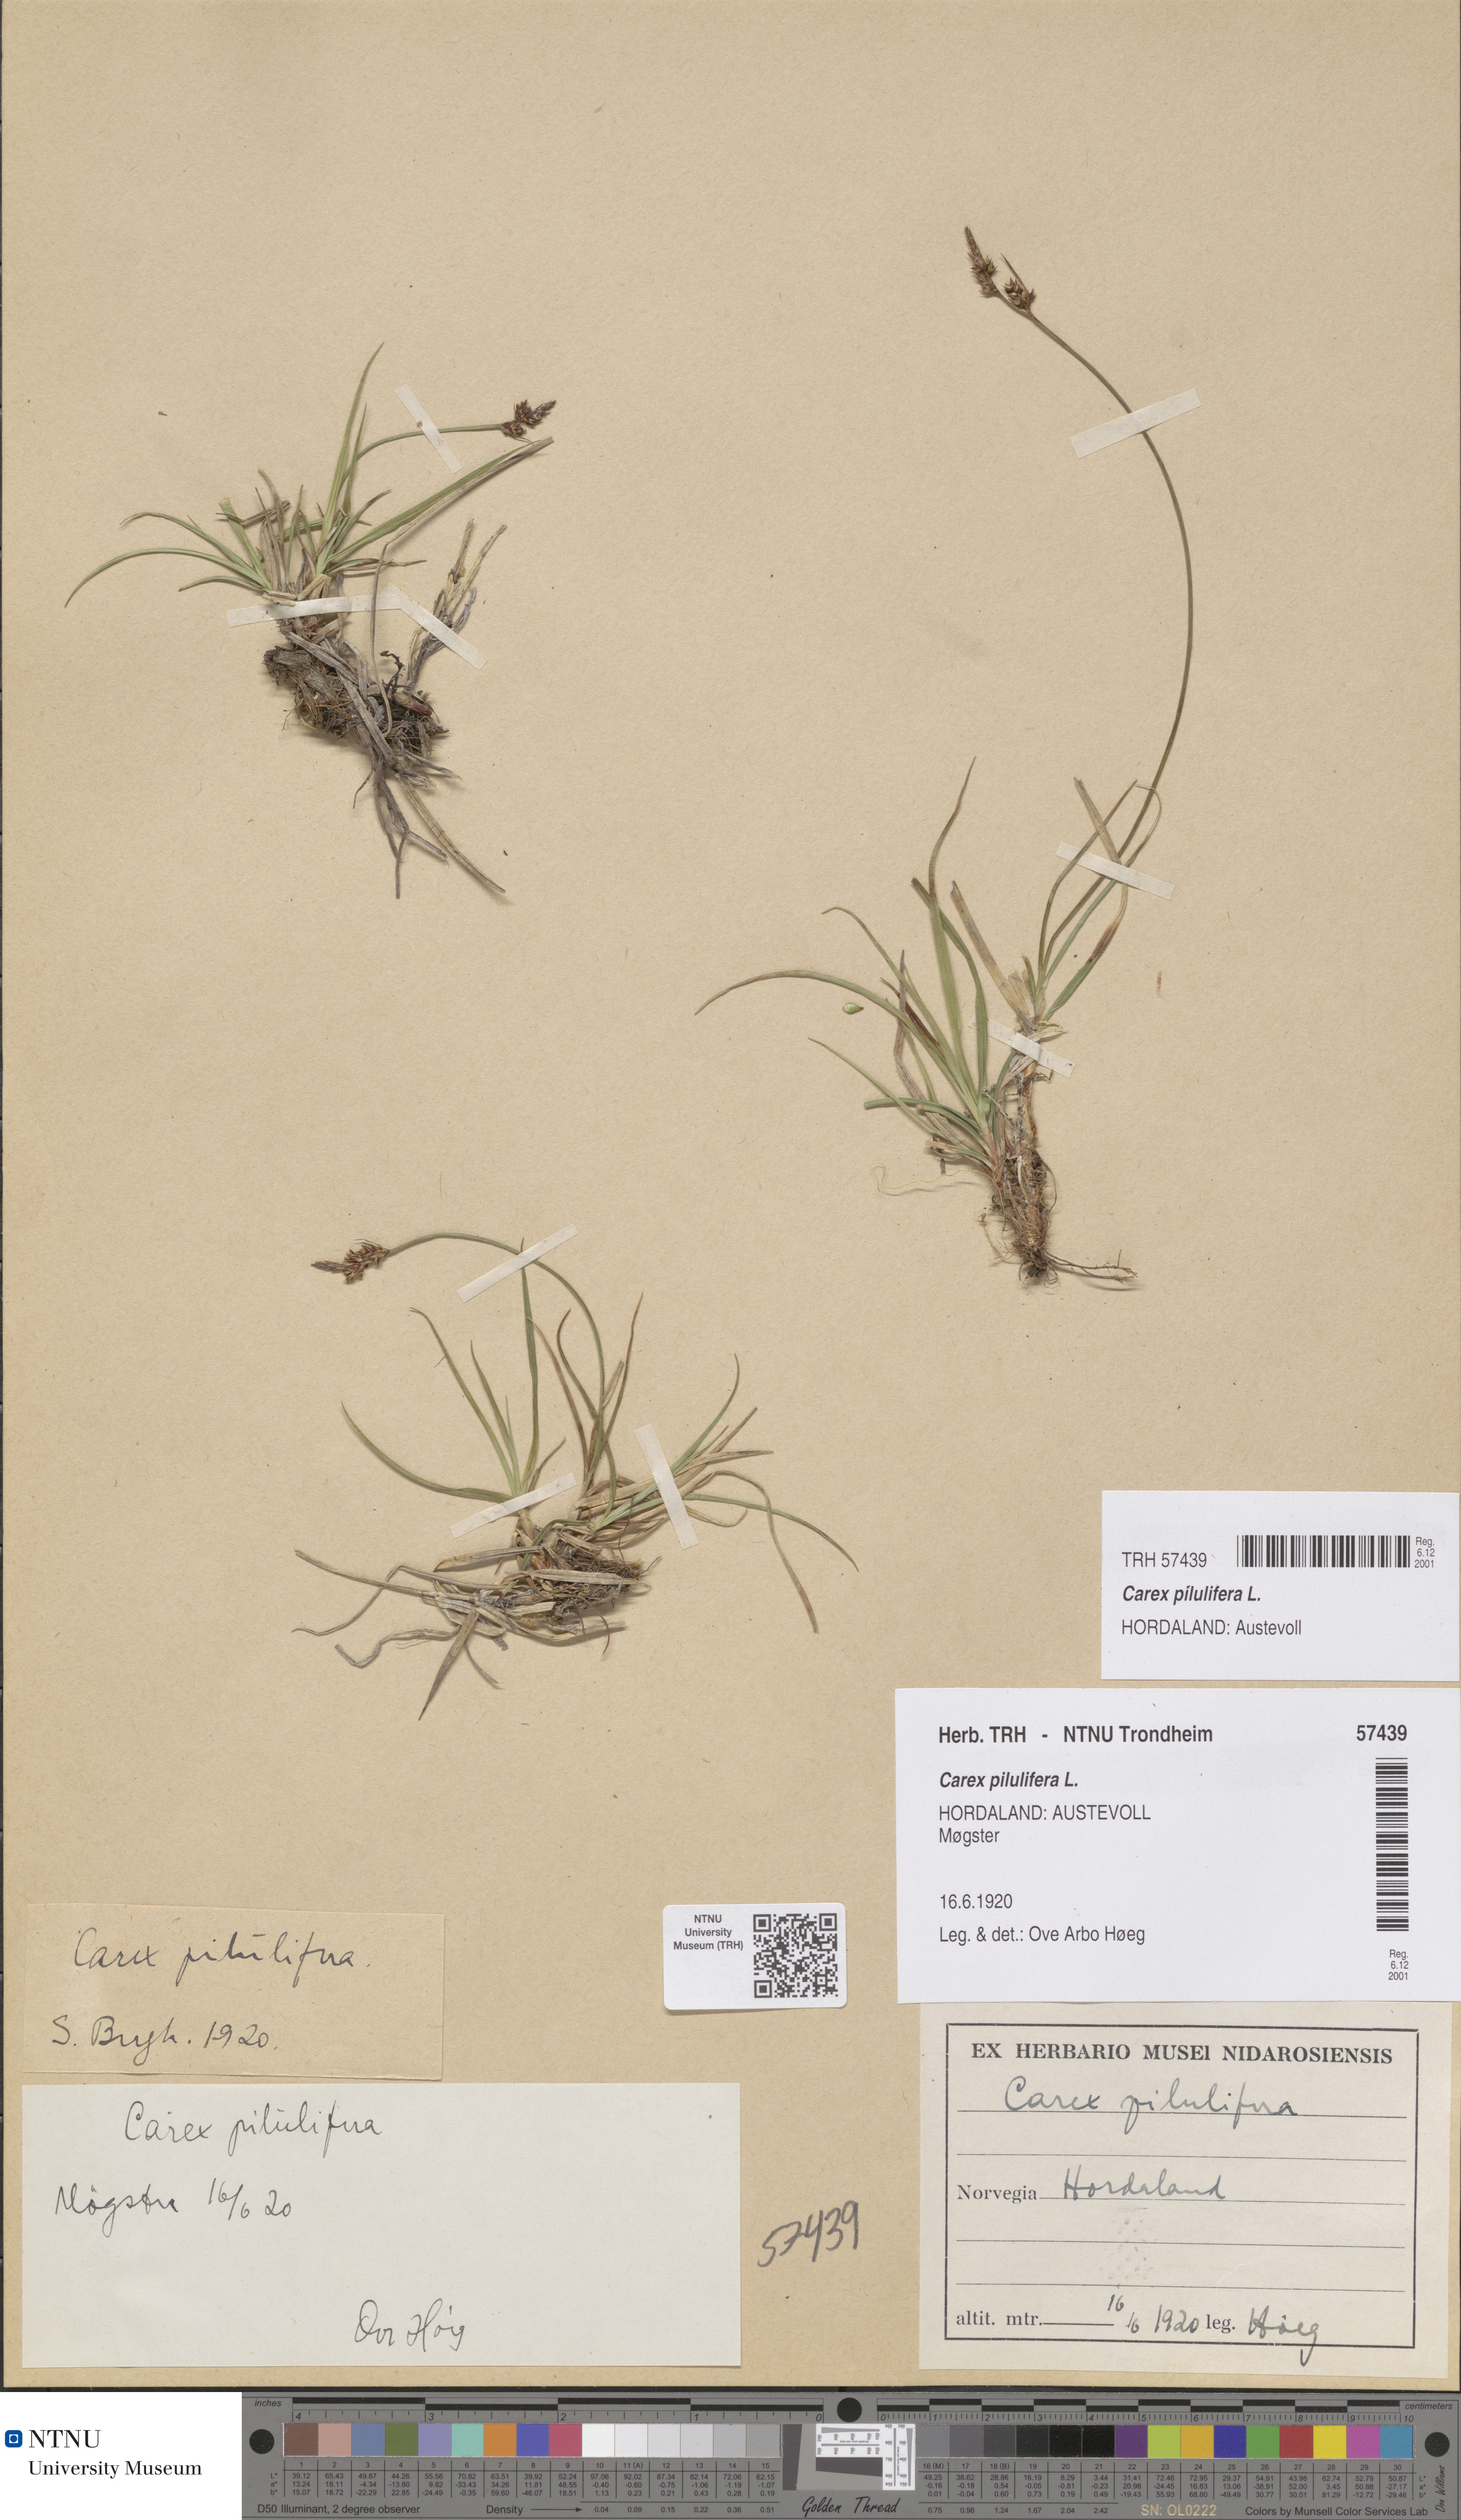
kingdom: Plantae
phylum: Tracheophyta
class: Liliopsida
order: Poales
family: Cyperaceae
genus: Carex
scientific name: Carex pilulifera
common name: Pill sedge
